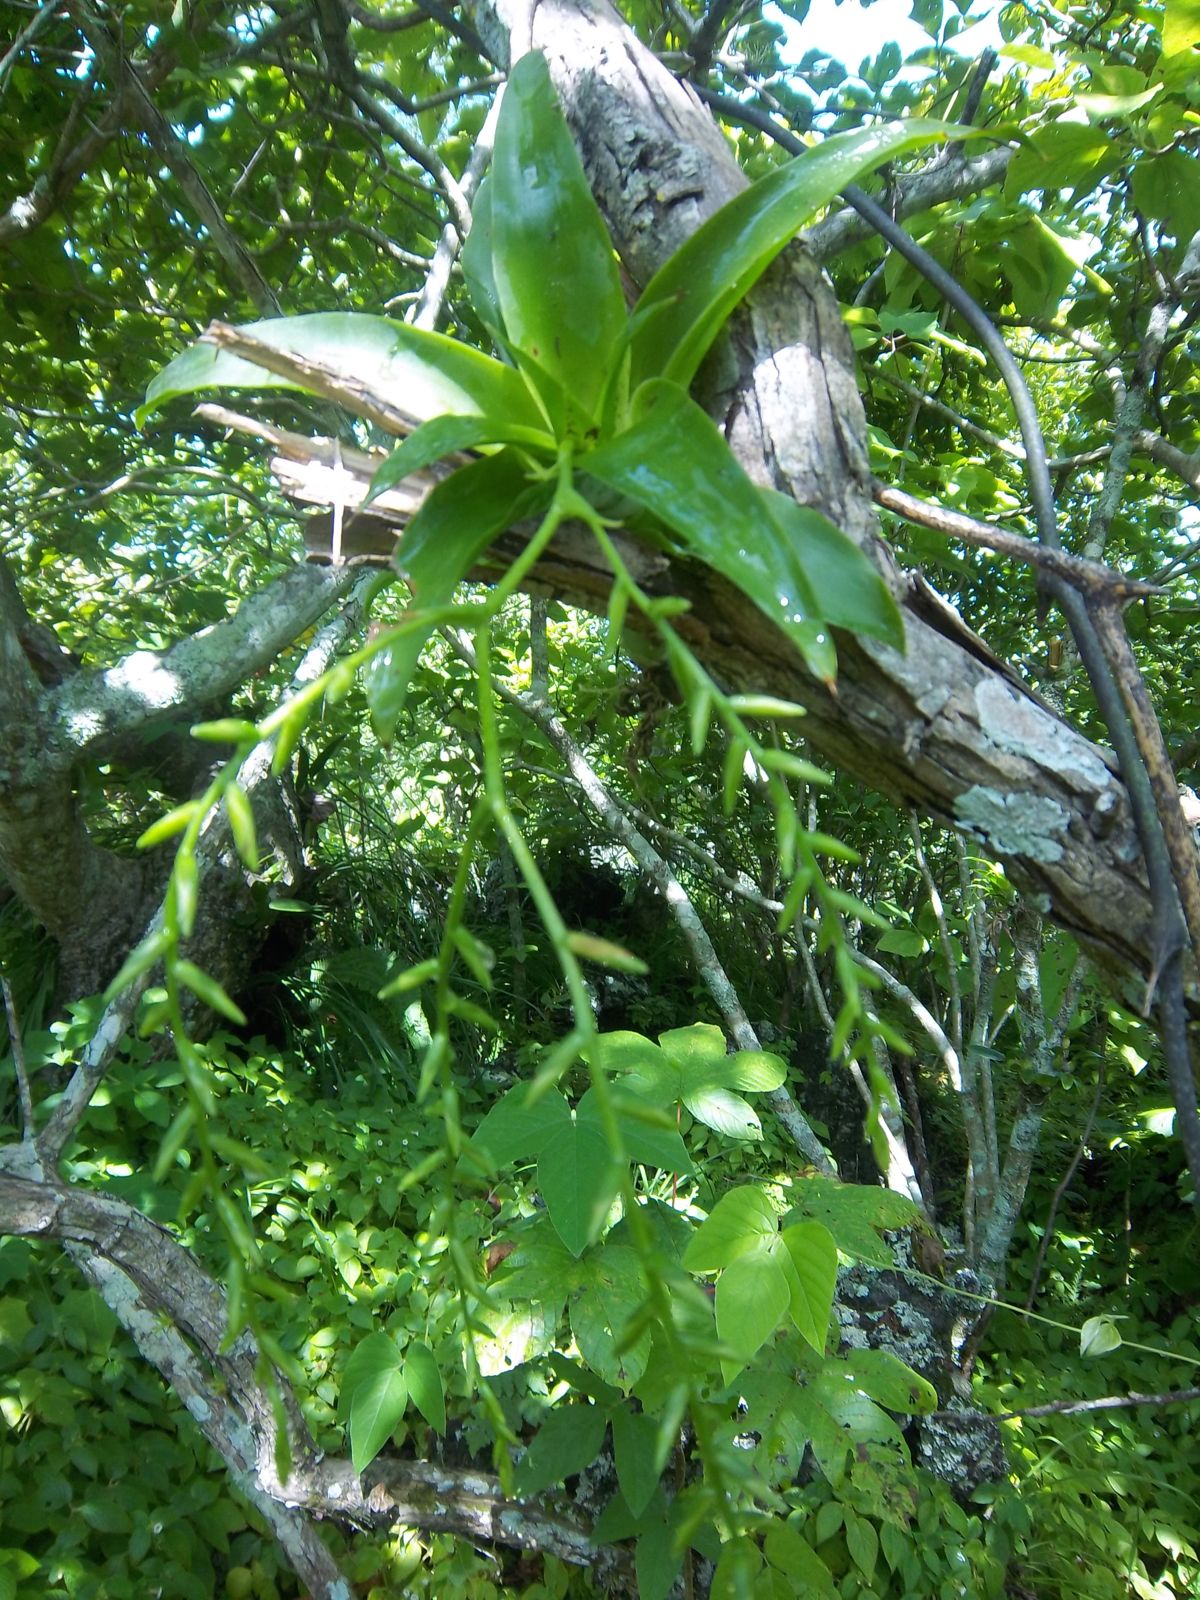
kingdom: Plantae
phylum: Tracheophyta
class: Liliopsida
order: Poales
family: Bromeliaceae
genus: Catopsis
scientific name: Catopsis nutans
